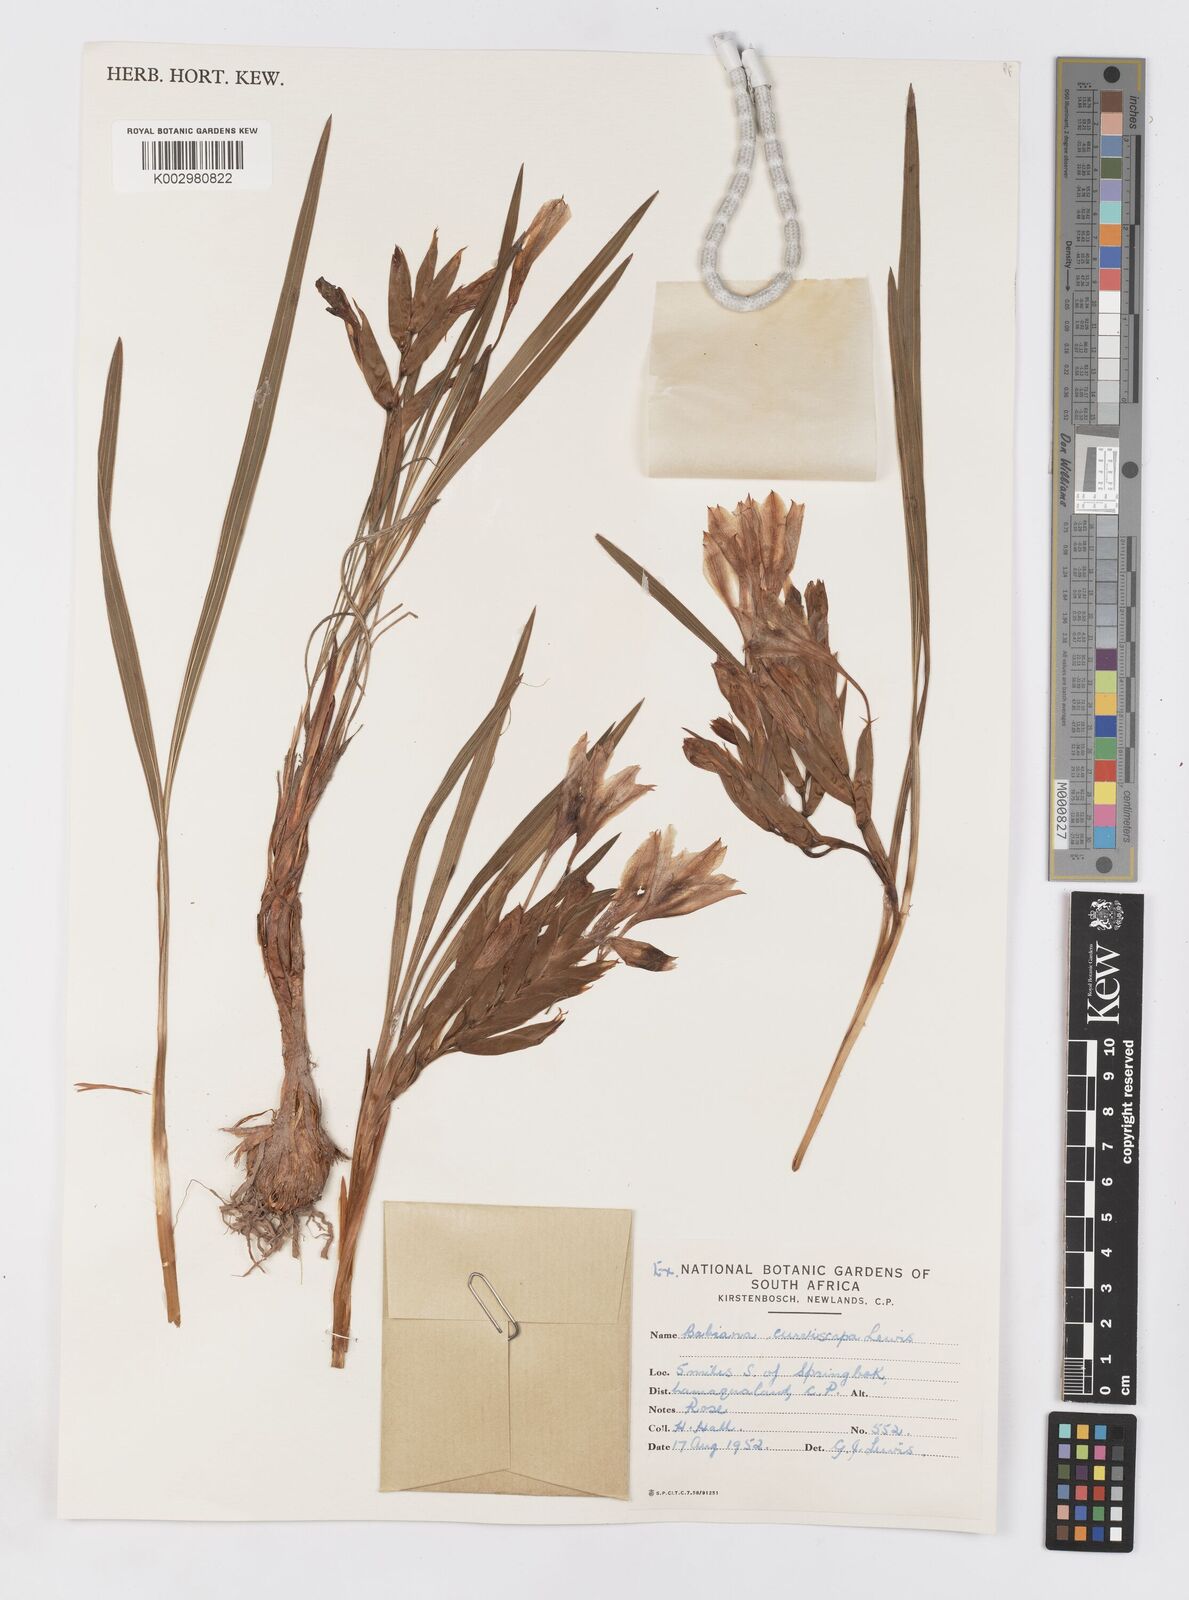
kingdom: Plantae
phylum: Tracheophyta
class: Liliopsida
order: Asparagales
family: Iridaceae
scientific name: Iridaceae
